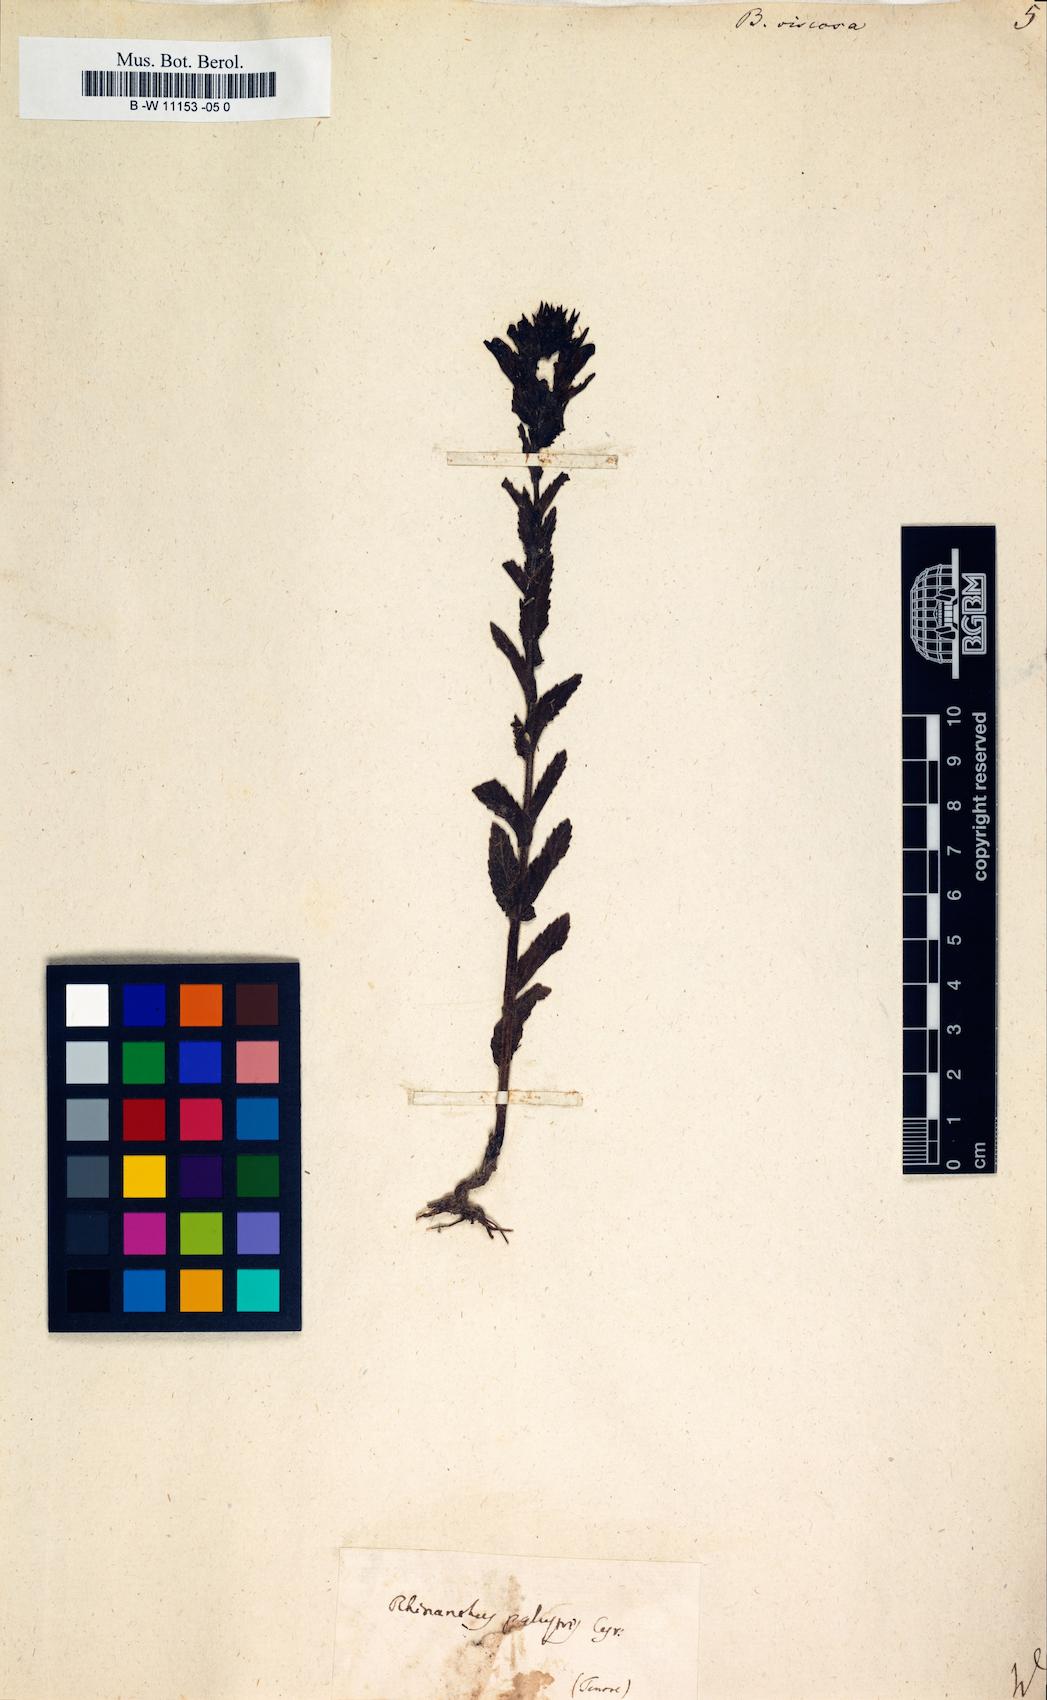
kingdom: Plantae
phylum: Tracheophyta
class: Magnoliopsida
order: Lamiales
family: Orobanchaceae
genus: Bellardia
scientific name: Bellardia viscosa
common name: Sticky parentucellia
